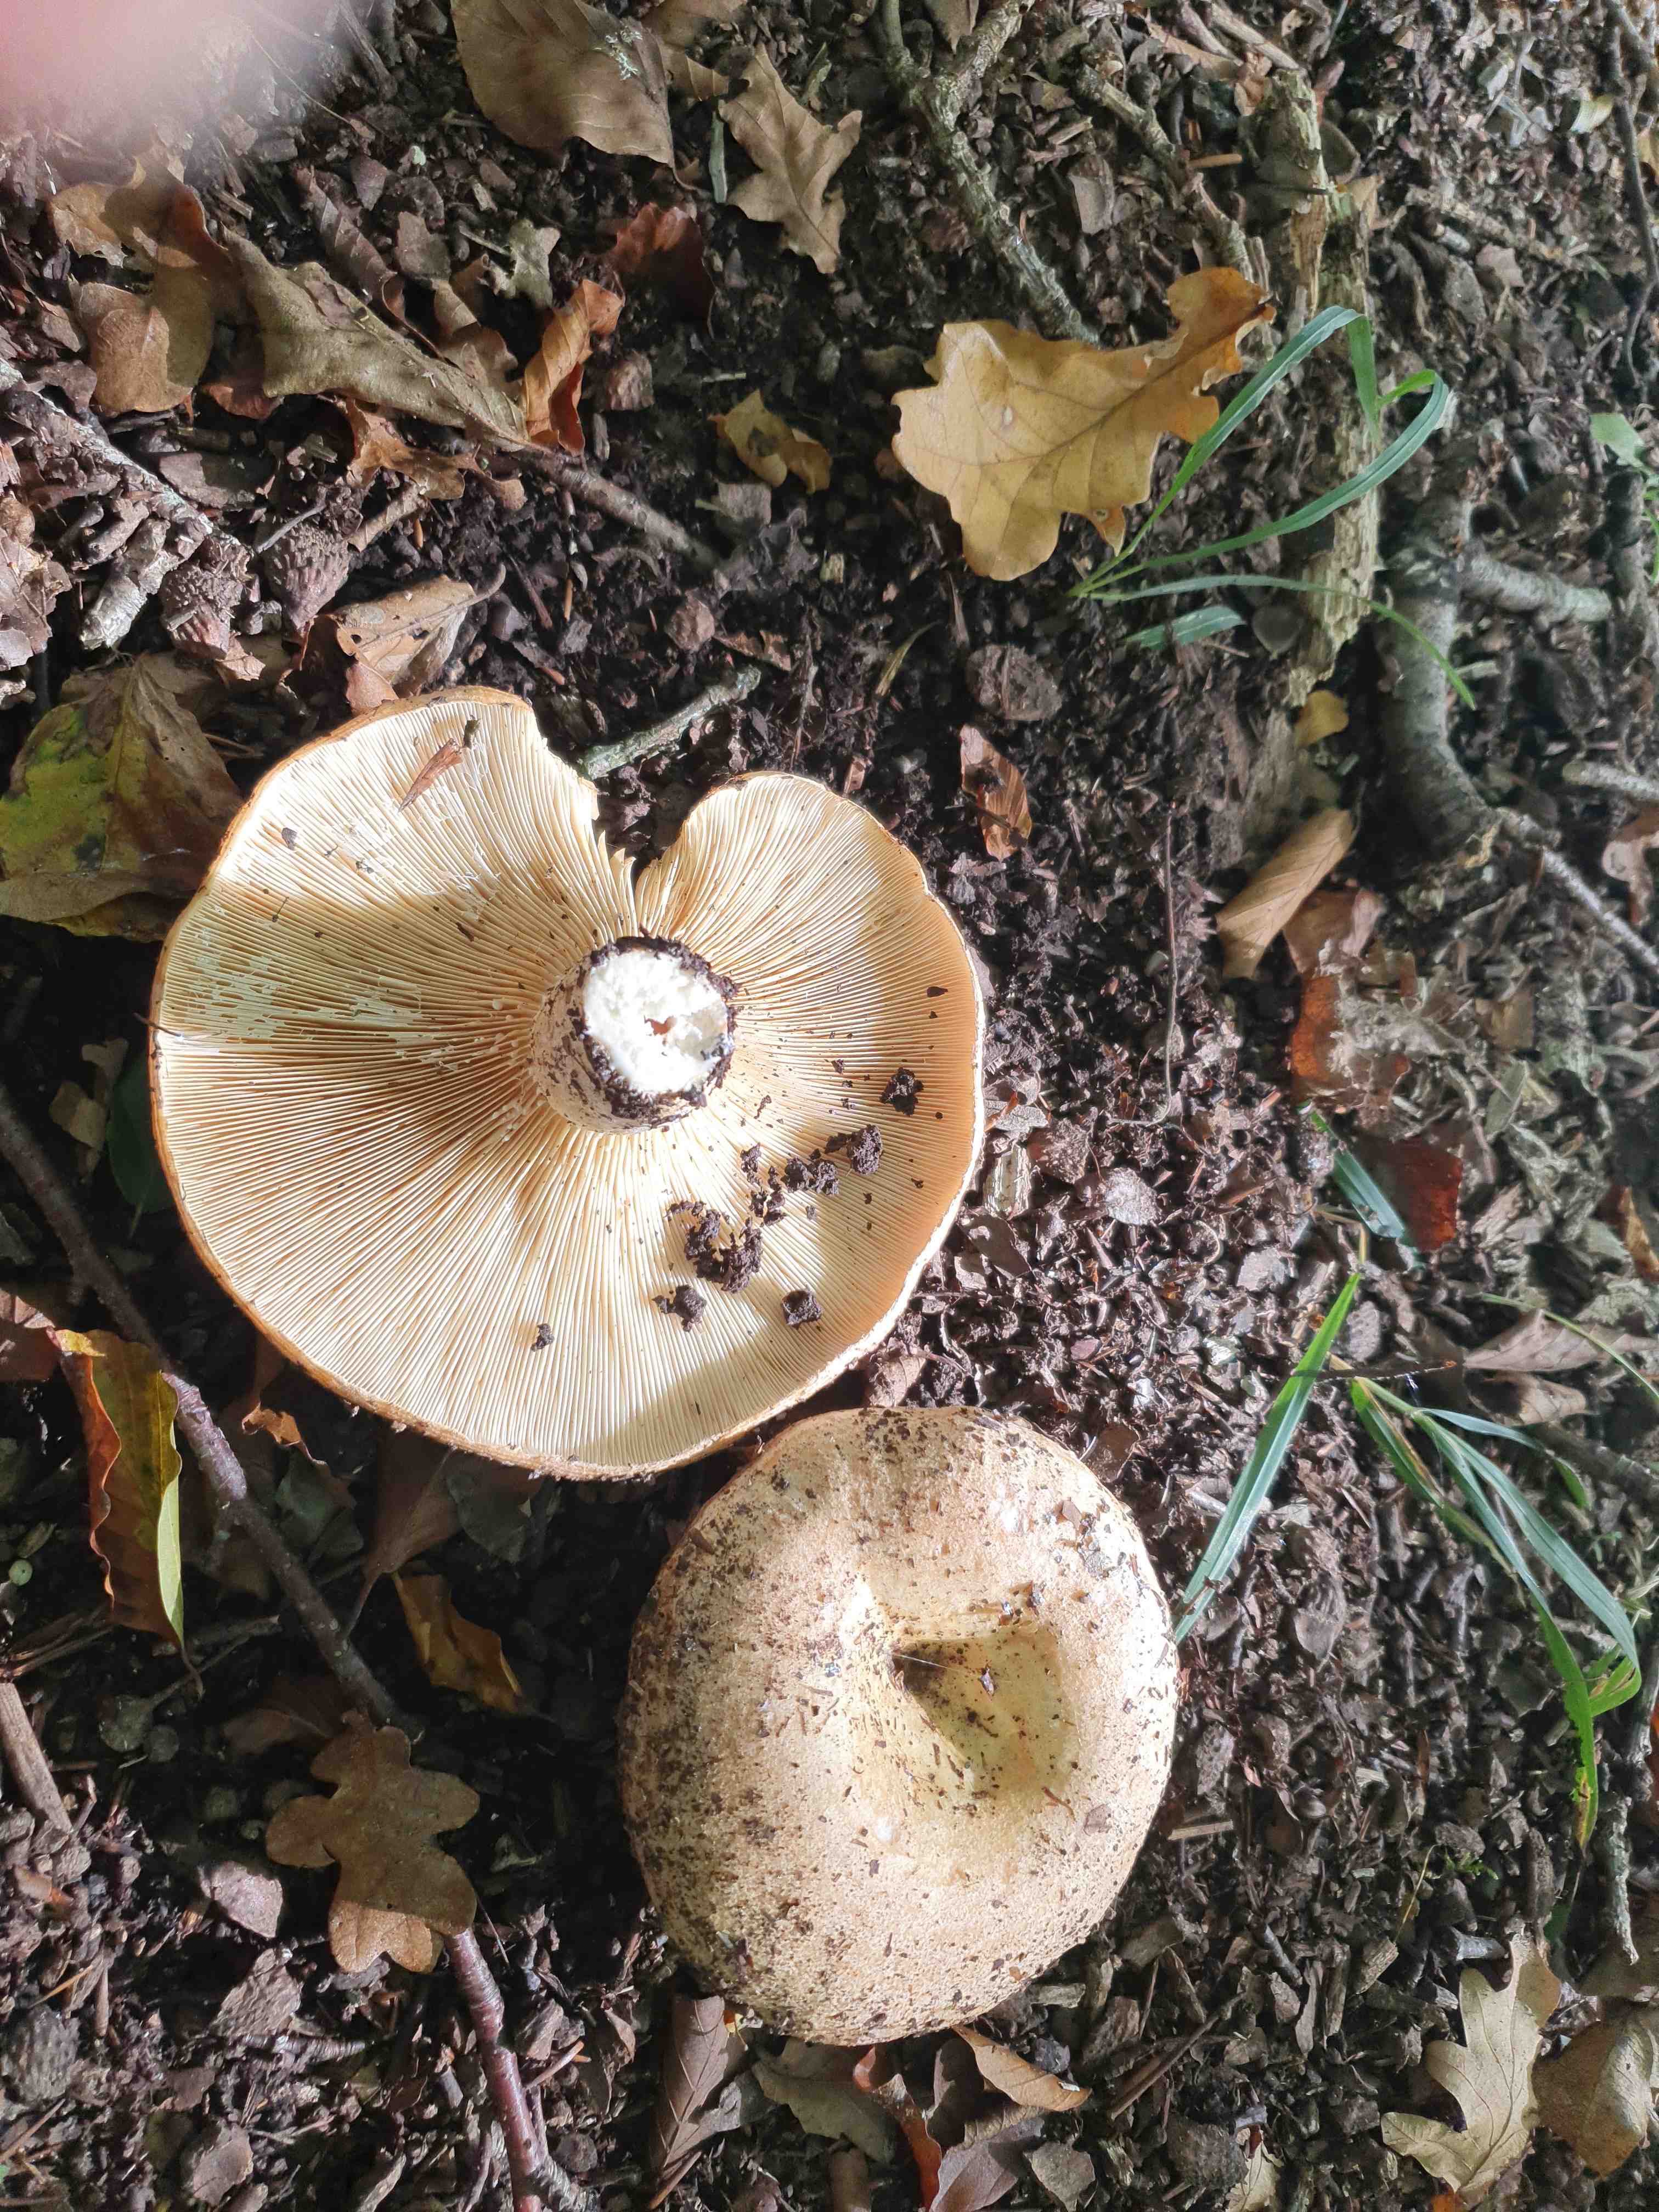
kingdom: Fungi
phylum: Basidiomycota
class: Agaricomycetes
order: Russulales
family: Russulaceae
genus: Lactarius
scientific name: Lactarius pallidus
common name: bleg mælkehat
